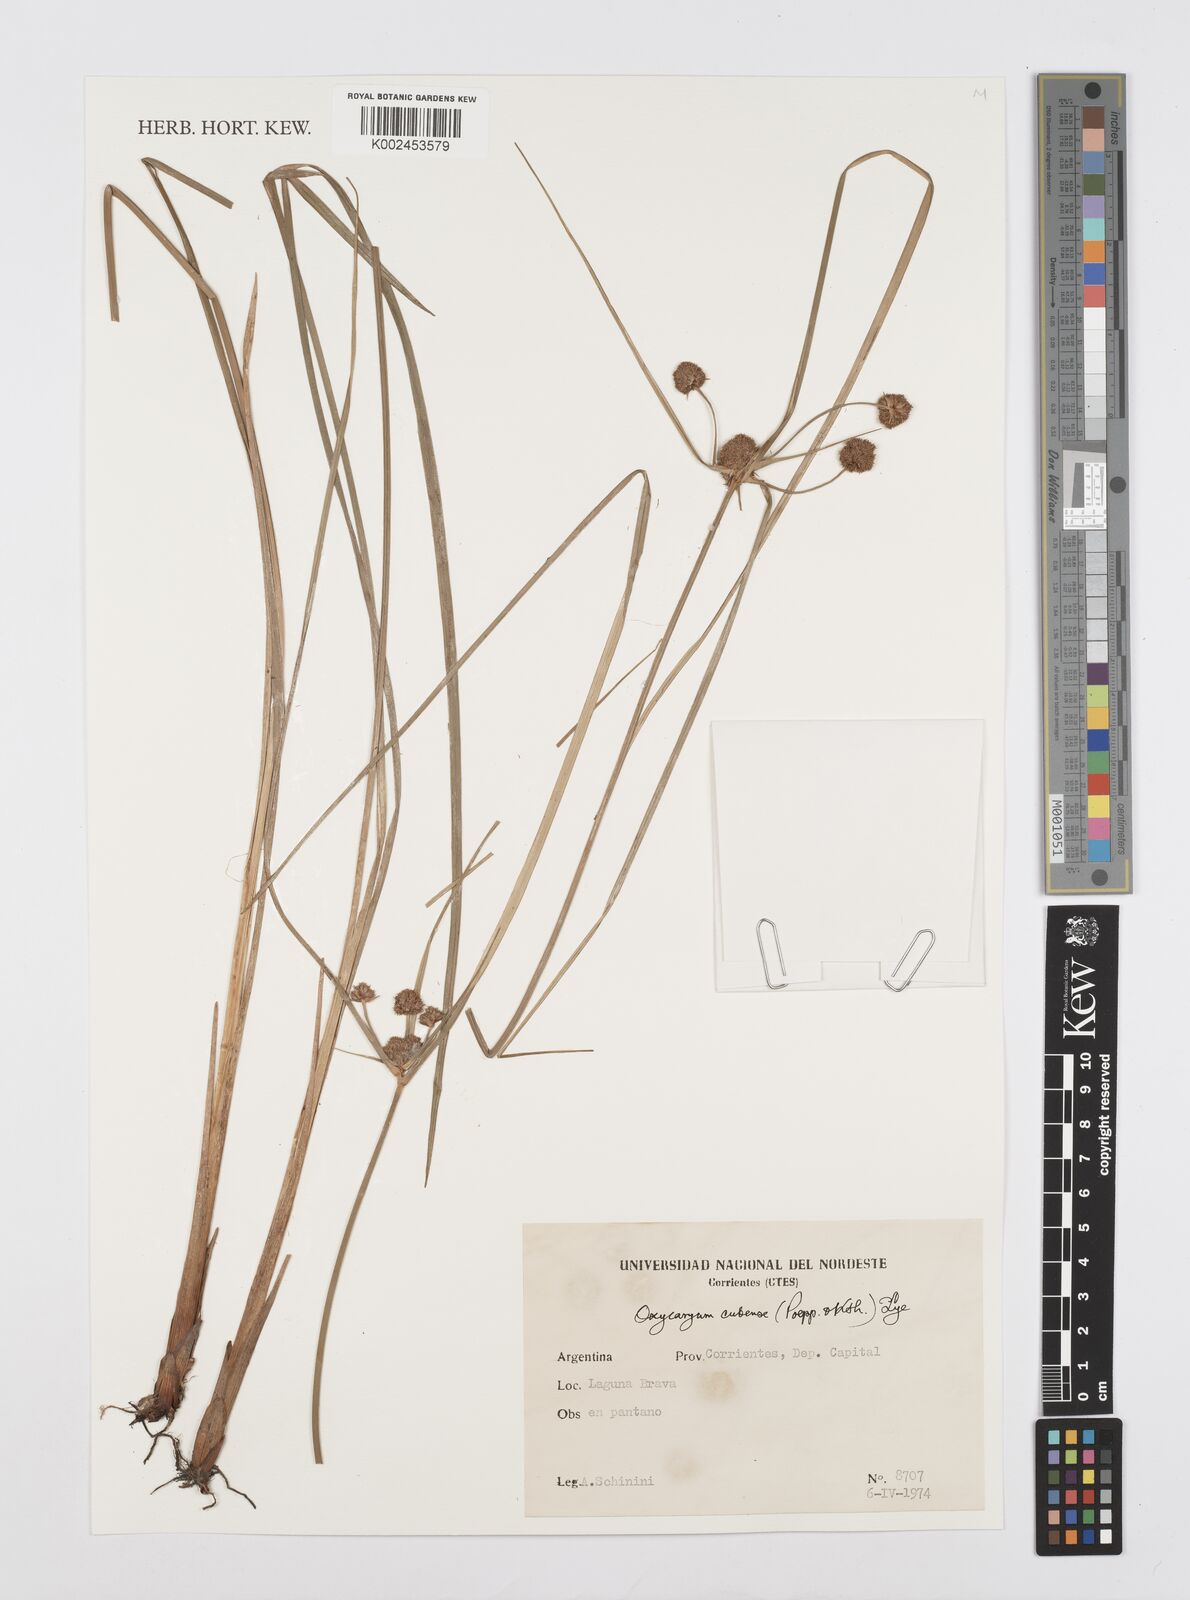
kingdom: Plantae
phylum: Tracheophyta
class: Liliopsida
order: Poales
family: Cyperaceae
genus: Cyperus
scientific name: Cyperus elegans
